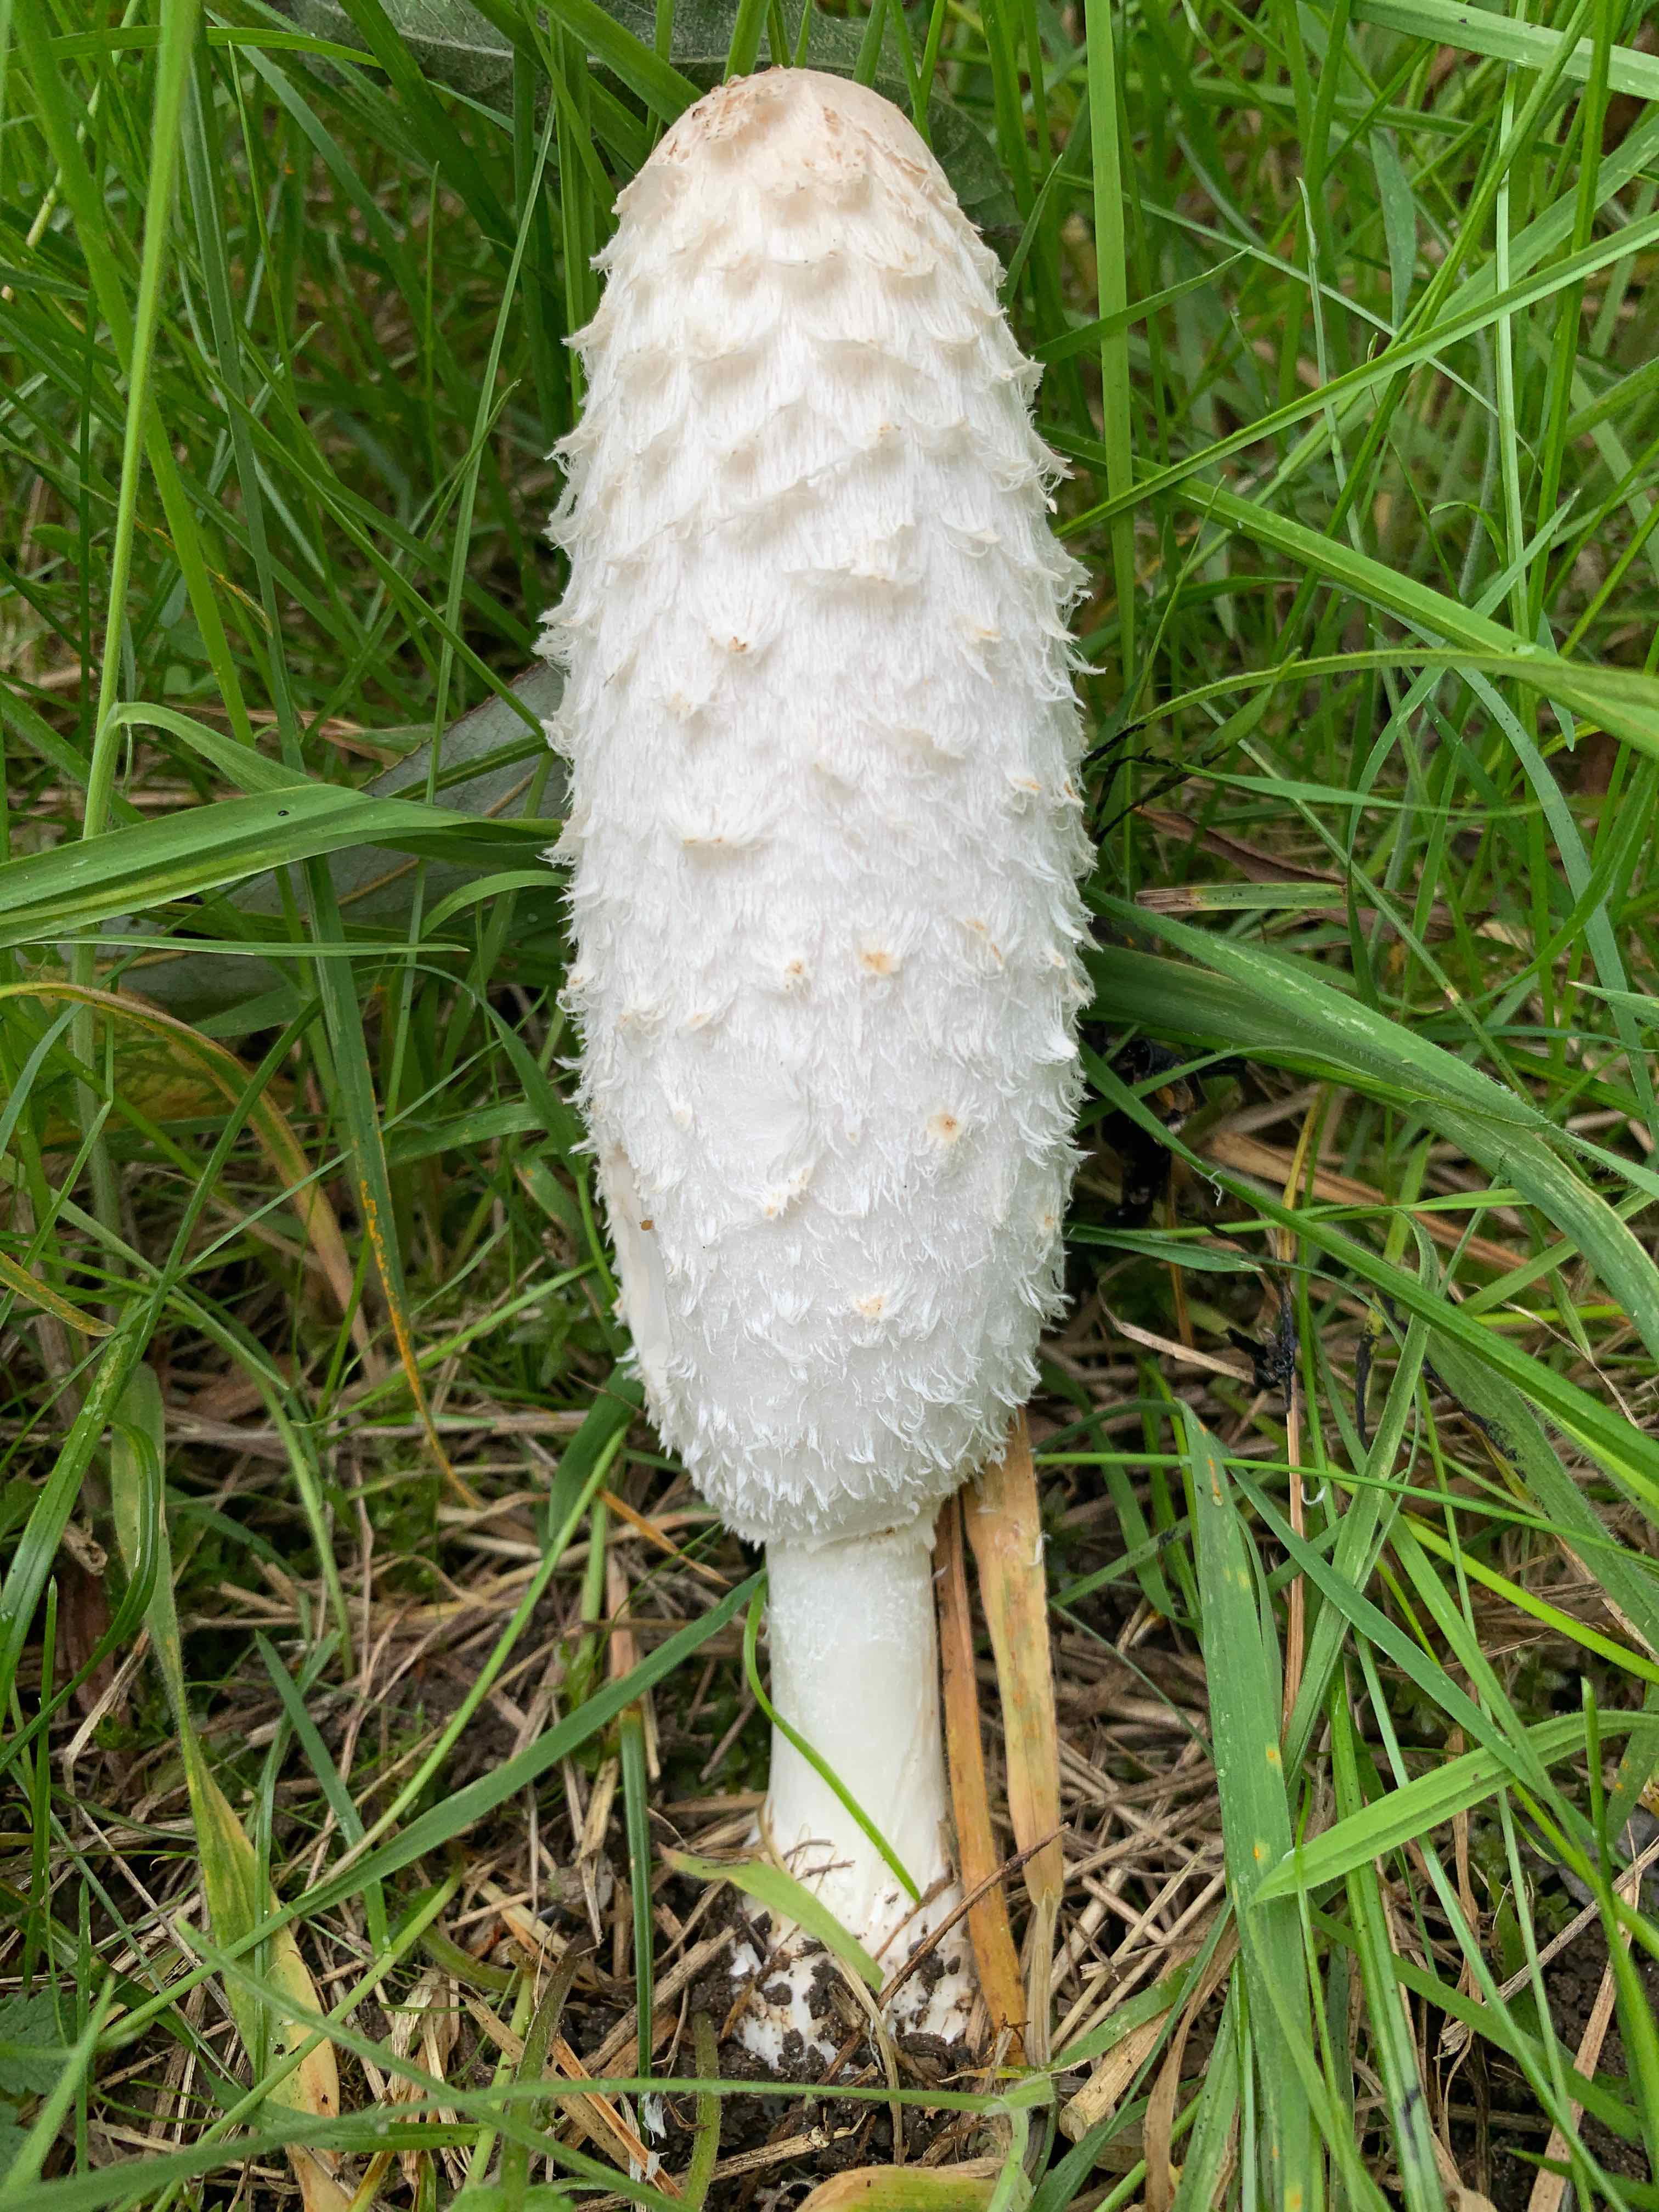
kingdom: Fungi
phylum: Basidiomycota
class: Agaricomycetes
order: Agaricales
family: Agaricaceae
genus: Coprinus
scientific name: Coprinus comatus
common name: stor parykhat
